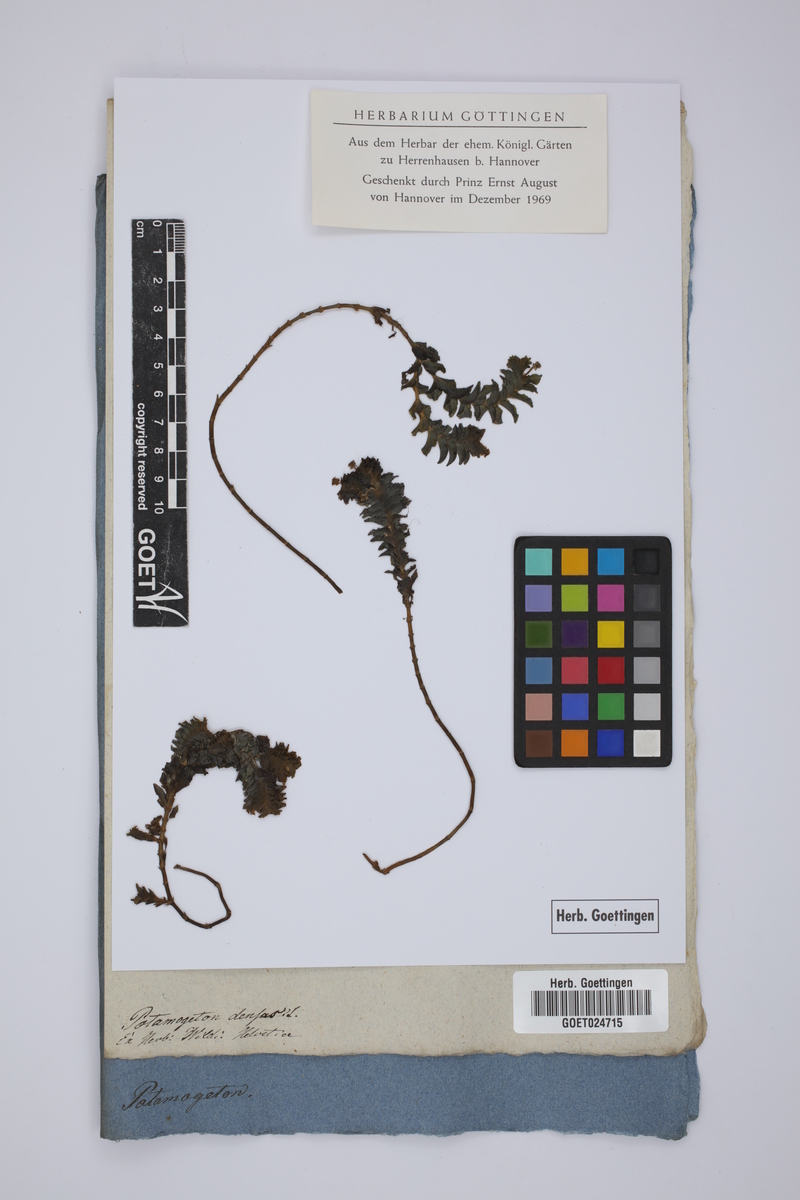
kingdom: Plantae
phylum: Tracheophyta
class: Liliopsida
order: Alismatales
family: Potamogetonaceae
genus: Groenlandia
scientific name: Groenlandia densa
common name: Opposite-leaved pondweed
